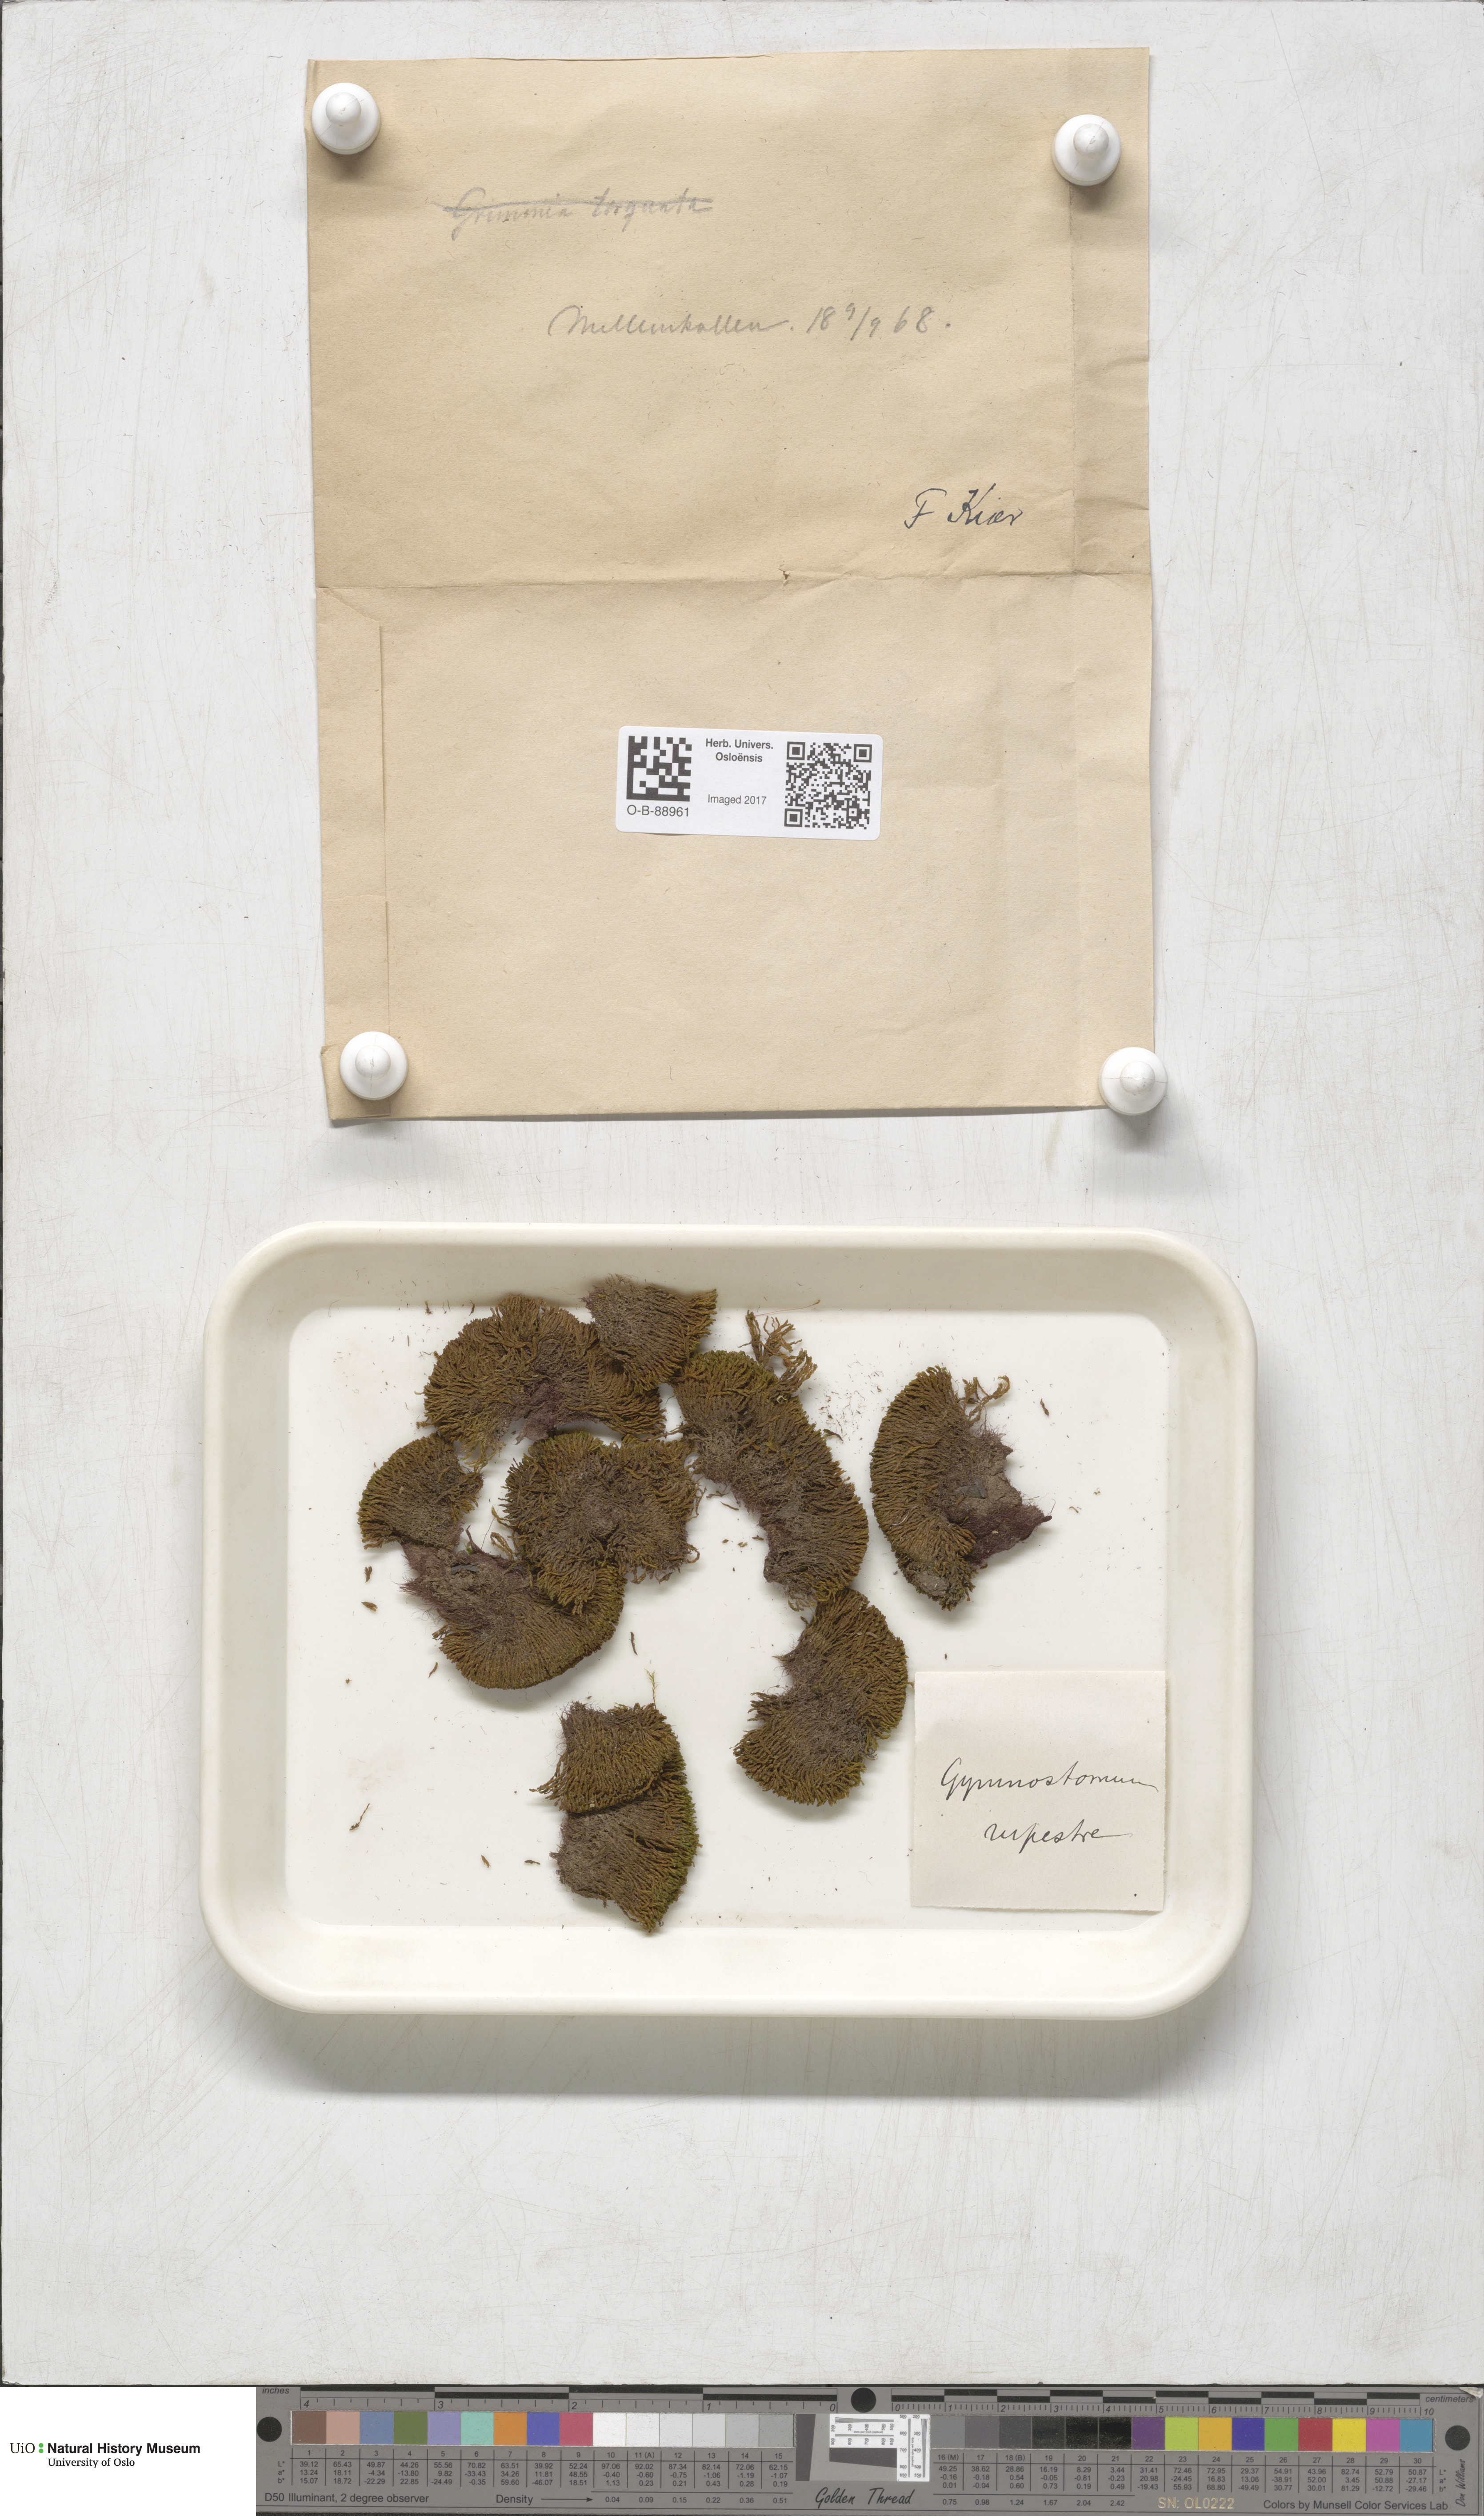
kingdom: Plantae
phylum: Bryophyta
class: Bryopsida
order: Pottiales
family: Pottiaceae
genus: Gymnostomum
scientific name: Gymnostomum aeruginosum
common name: Verdigris tufa-moss
